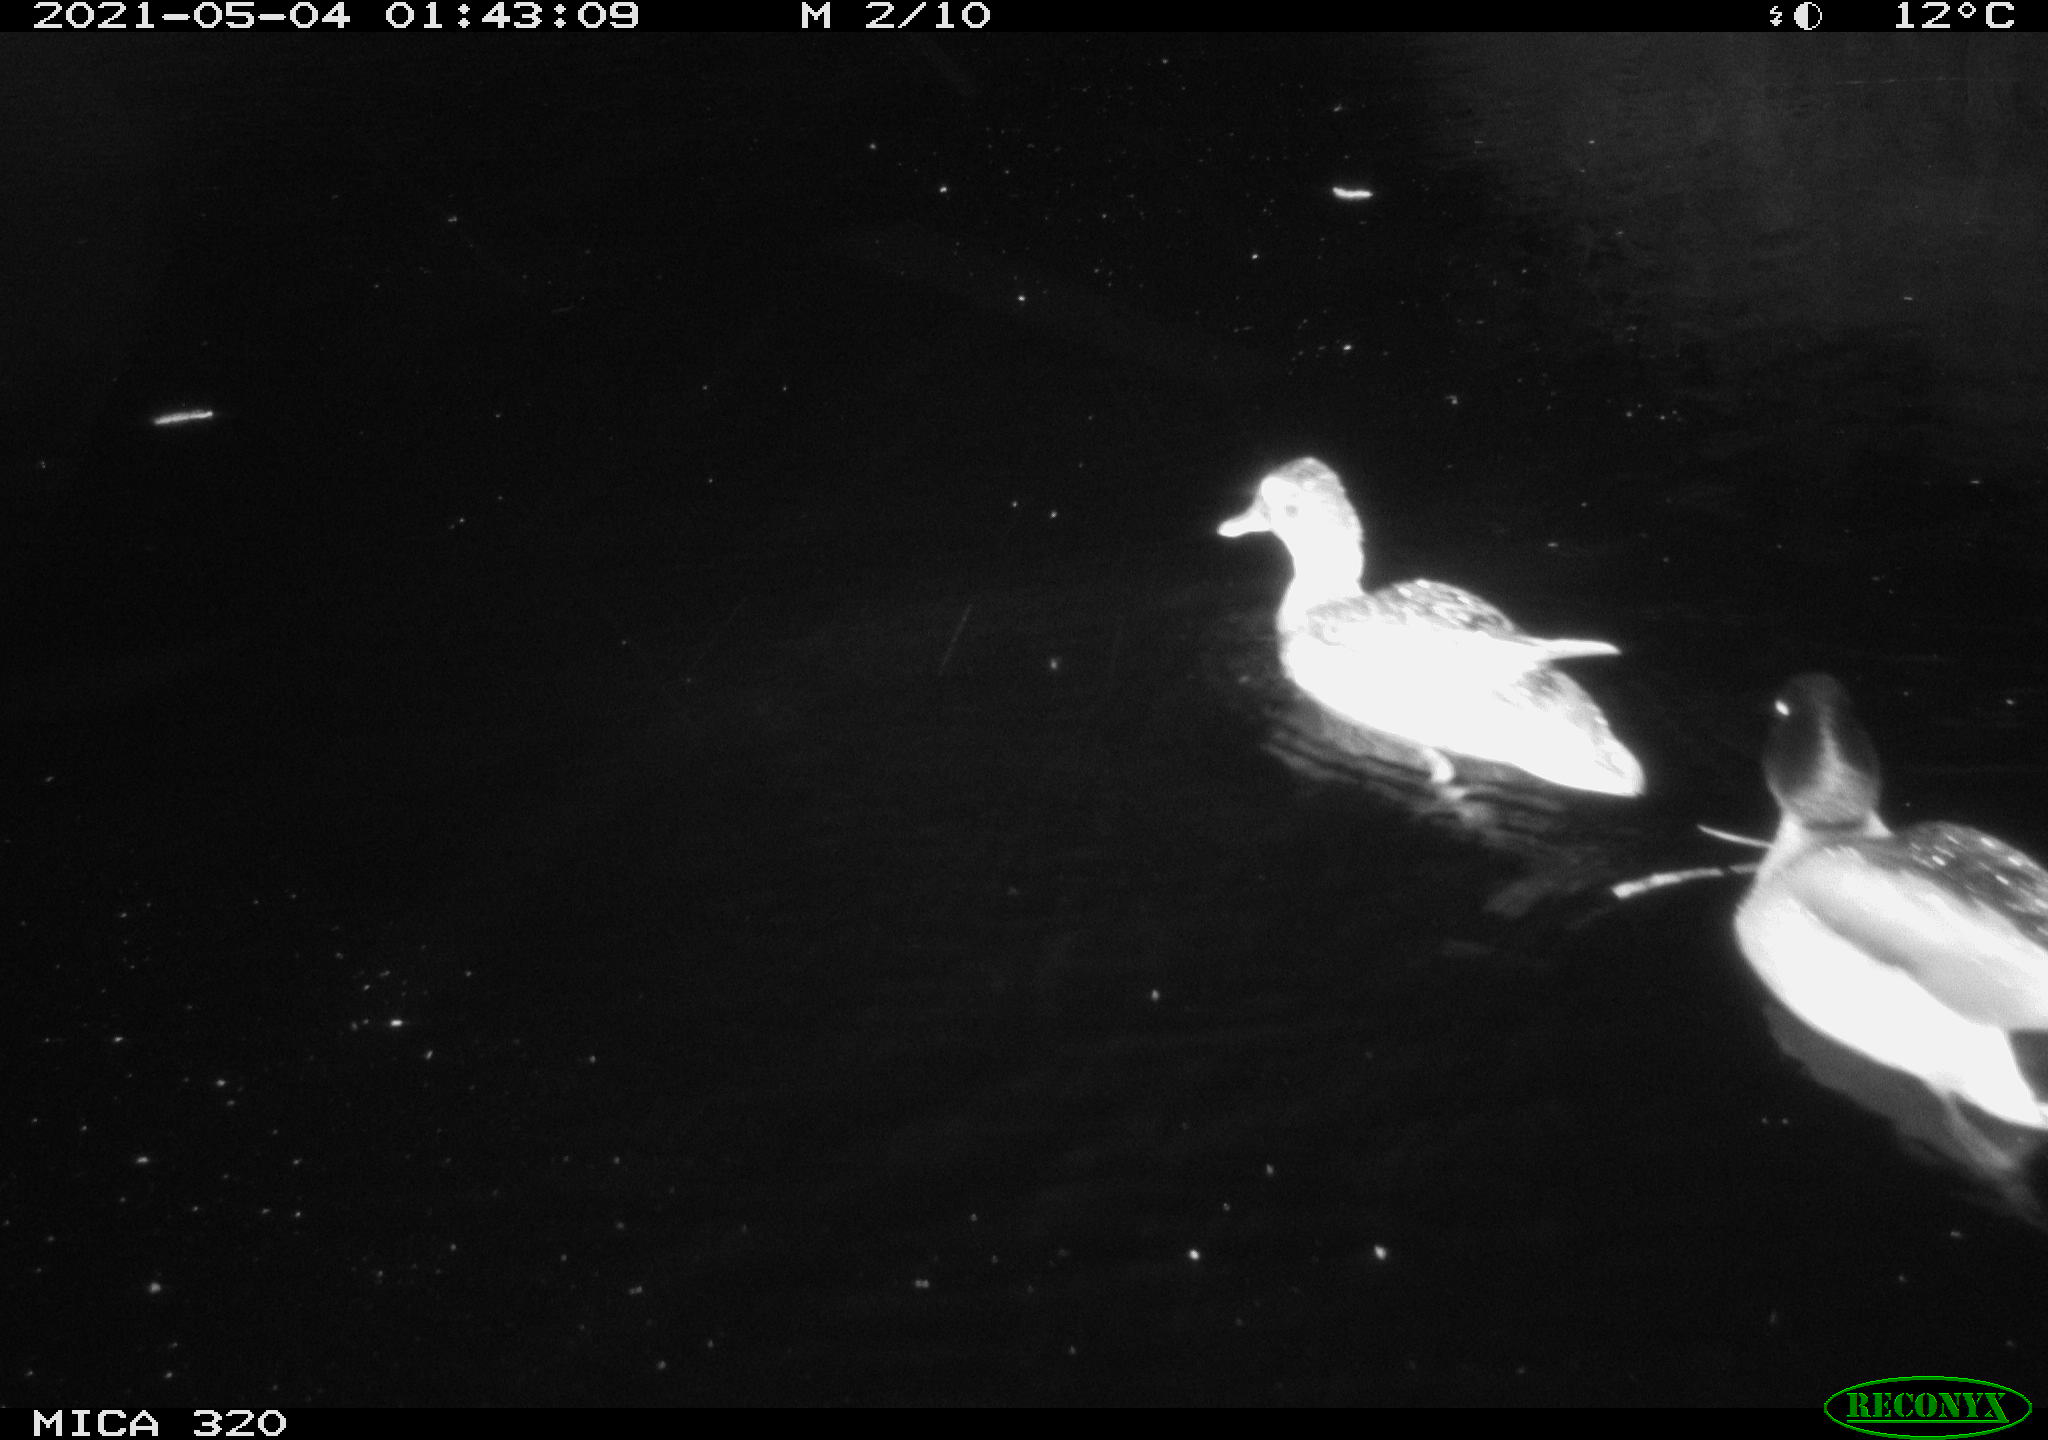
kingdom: Animalia
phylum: Chordata
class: Aves
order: Anseriformes
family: Anatidae
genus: Anas
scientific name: Anas platyrhynchos
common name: Mallard
